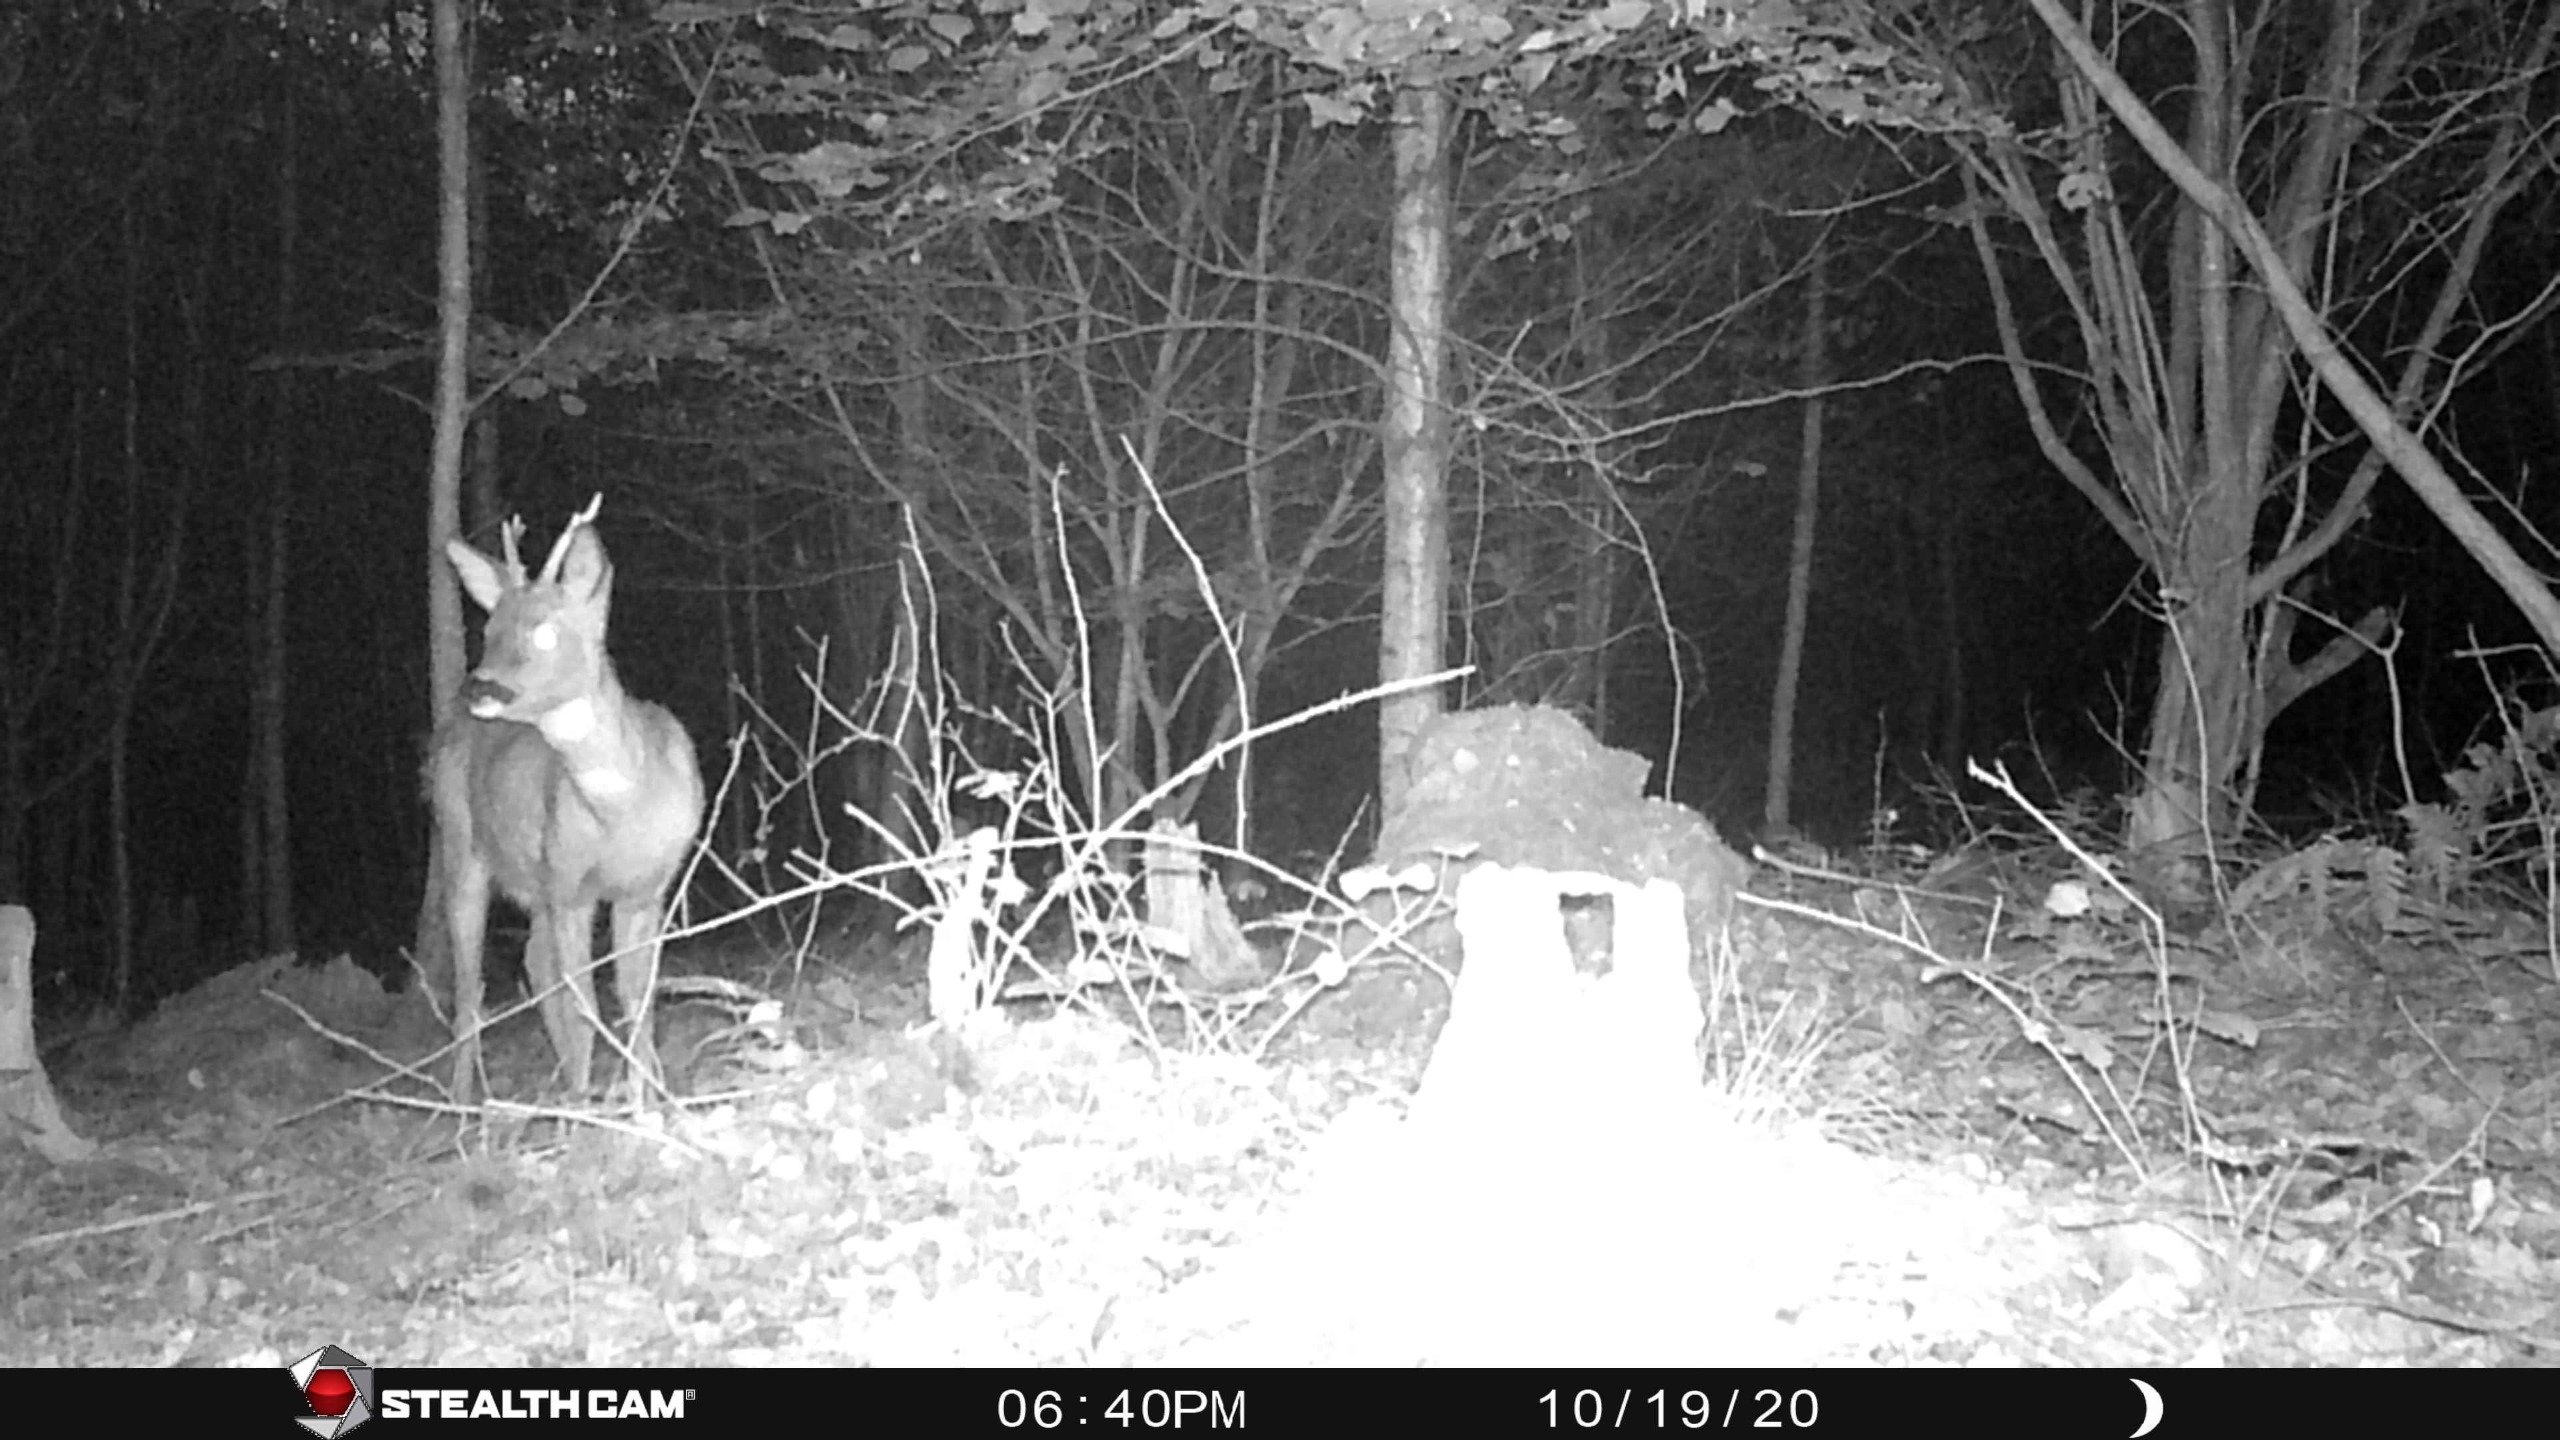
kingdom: Animalia
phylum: Chordata
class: Mammalia
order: Artiodactyla
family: Cervidae
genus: Capreolus
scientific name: Capreolus capreolus
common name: Rådyr
